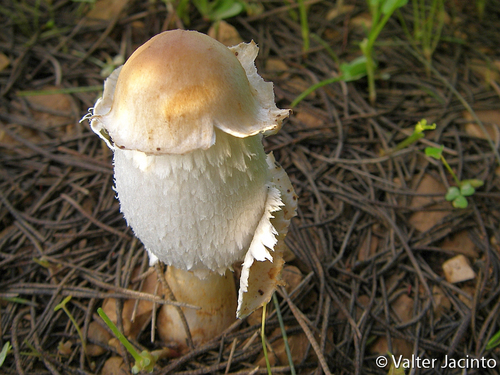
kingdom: Fungi
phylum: Basidiomycota
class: Agaricomycetes
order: Agaricales
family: Agaricaceae
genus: Coprinus
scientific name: Coprinus comatus
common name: Lawyer's wig
